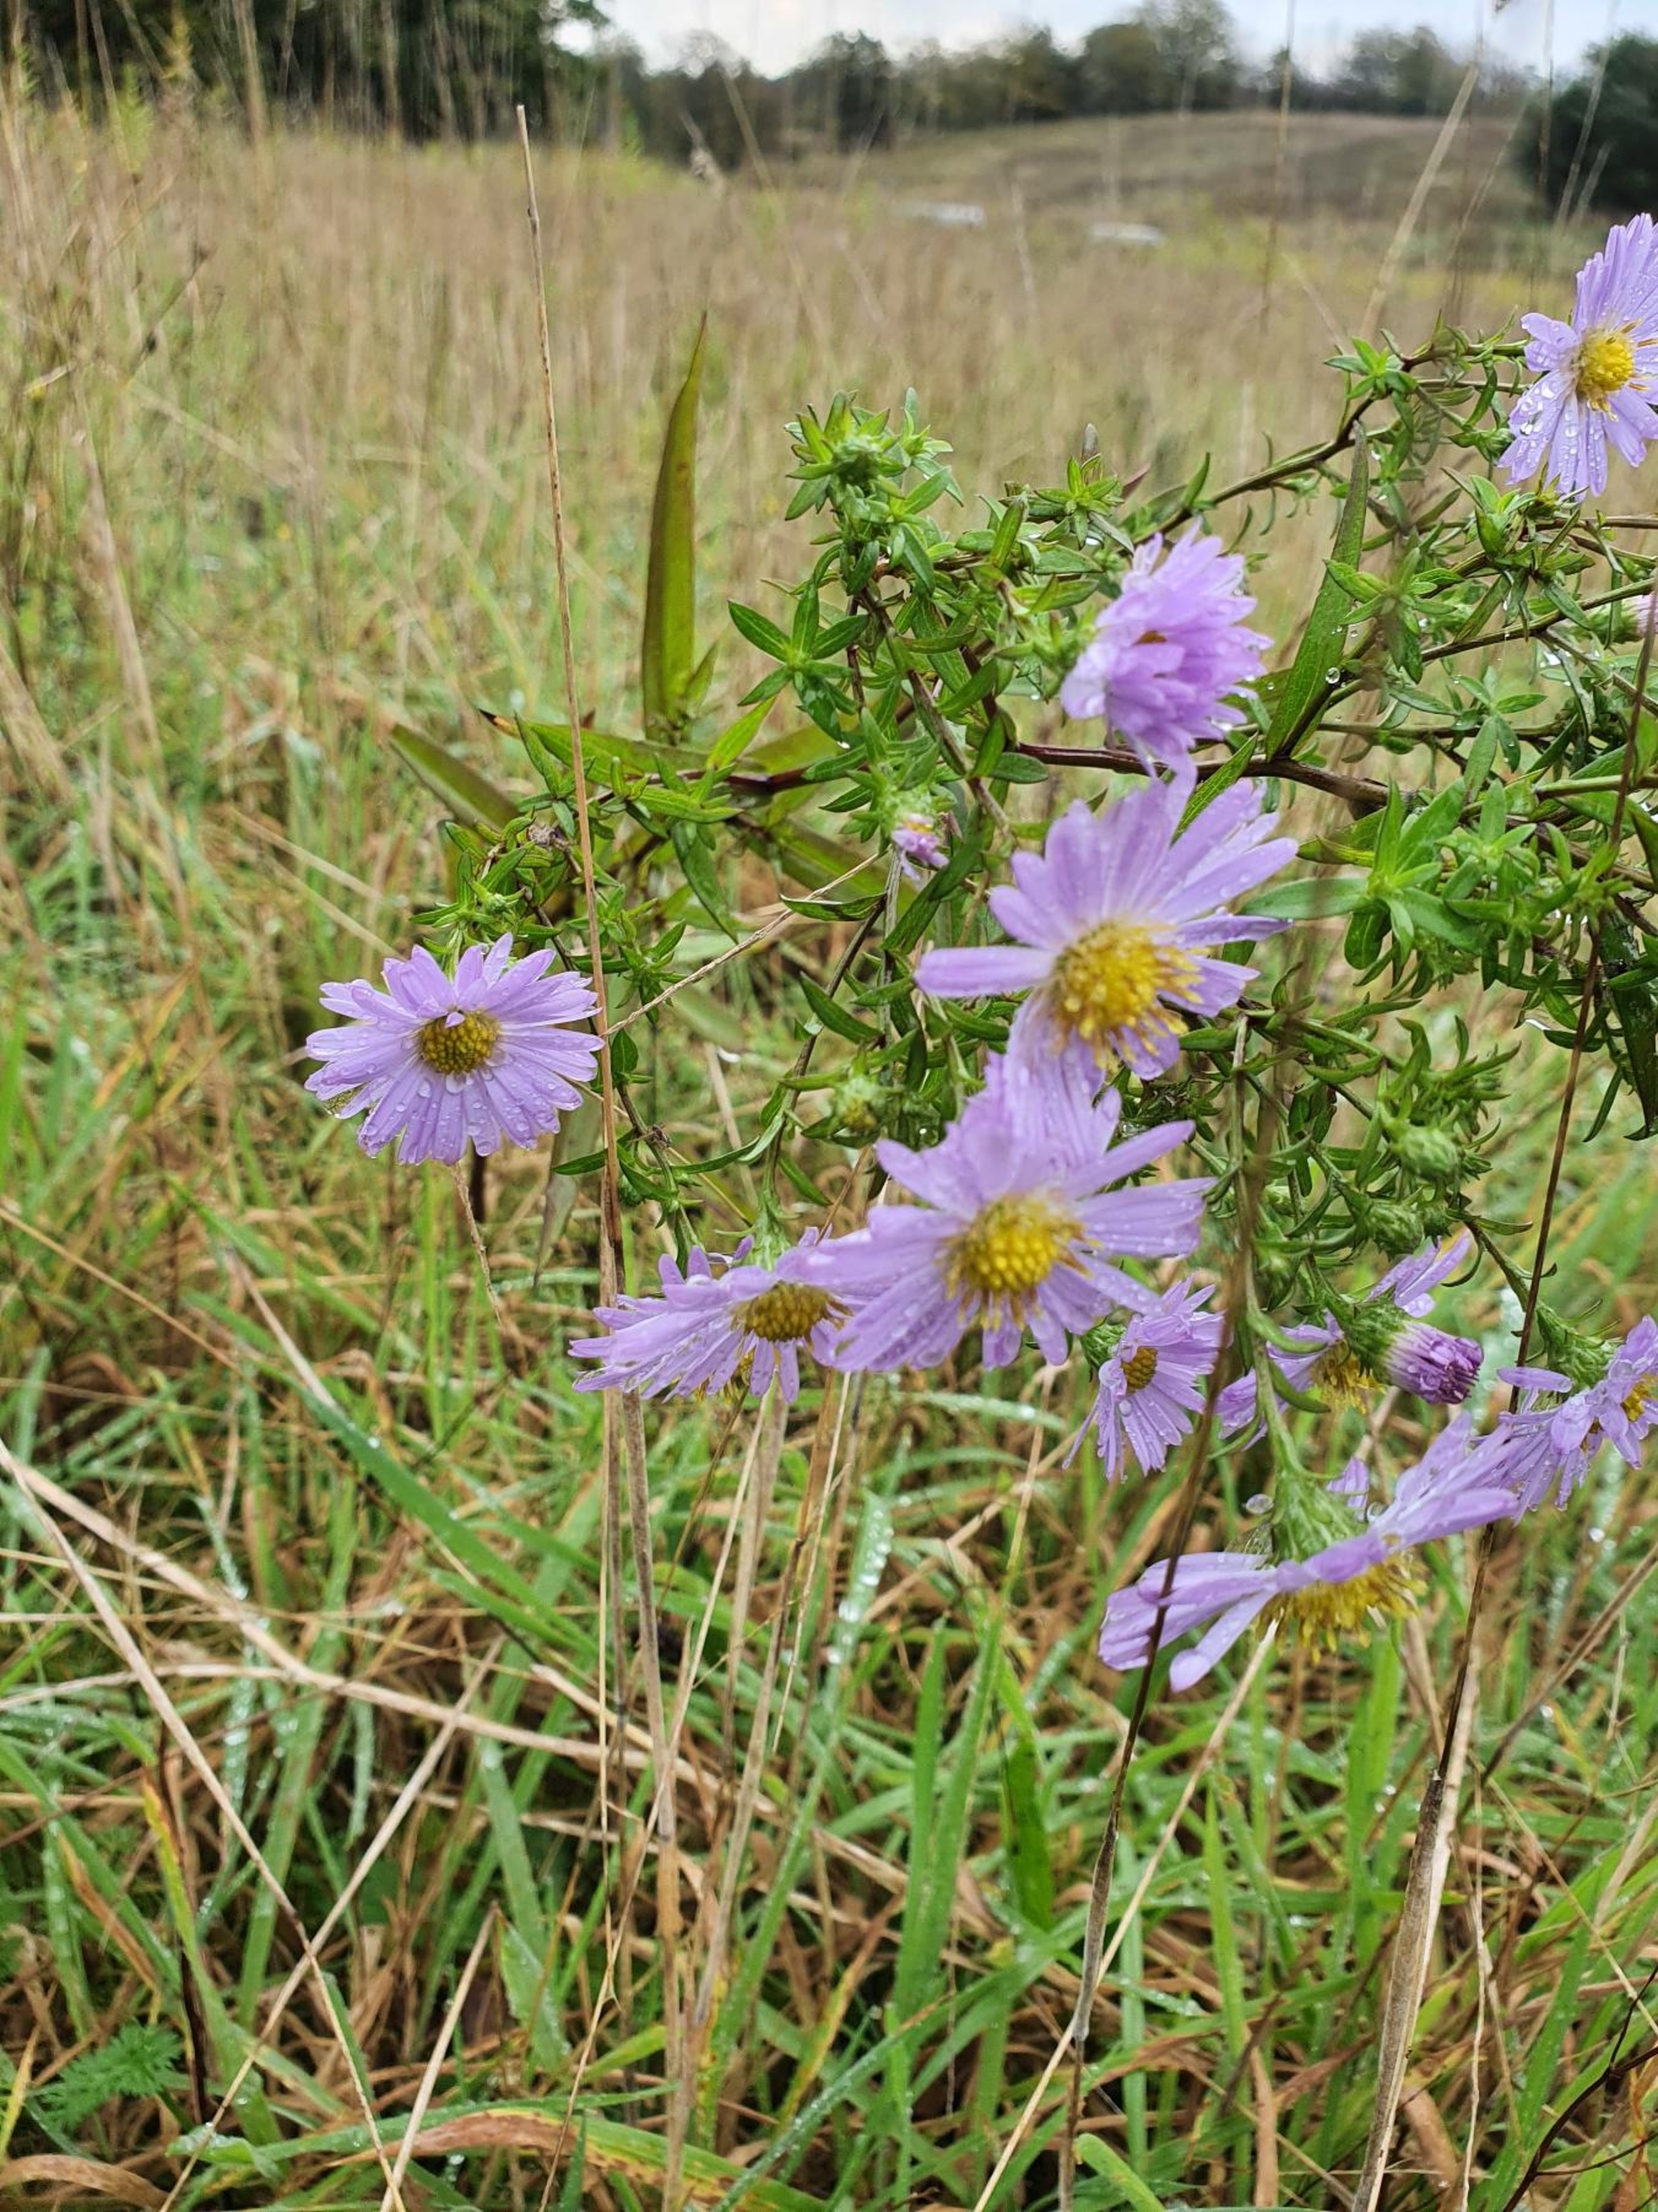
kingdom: Plantae
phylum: Tracheophyta
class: Magnoliopsida
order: Asterales
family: Asteraceae
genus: Symphyotrichum
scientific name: Symphyotrichum versicolor
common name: Broget asters
